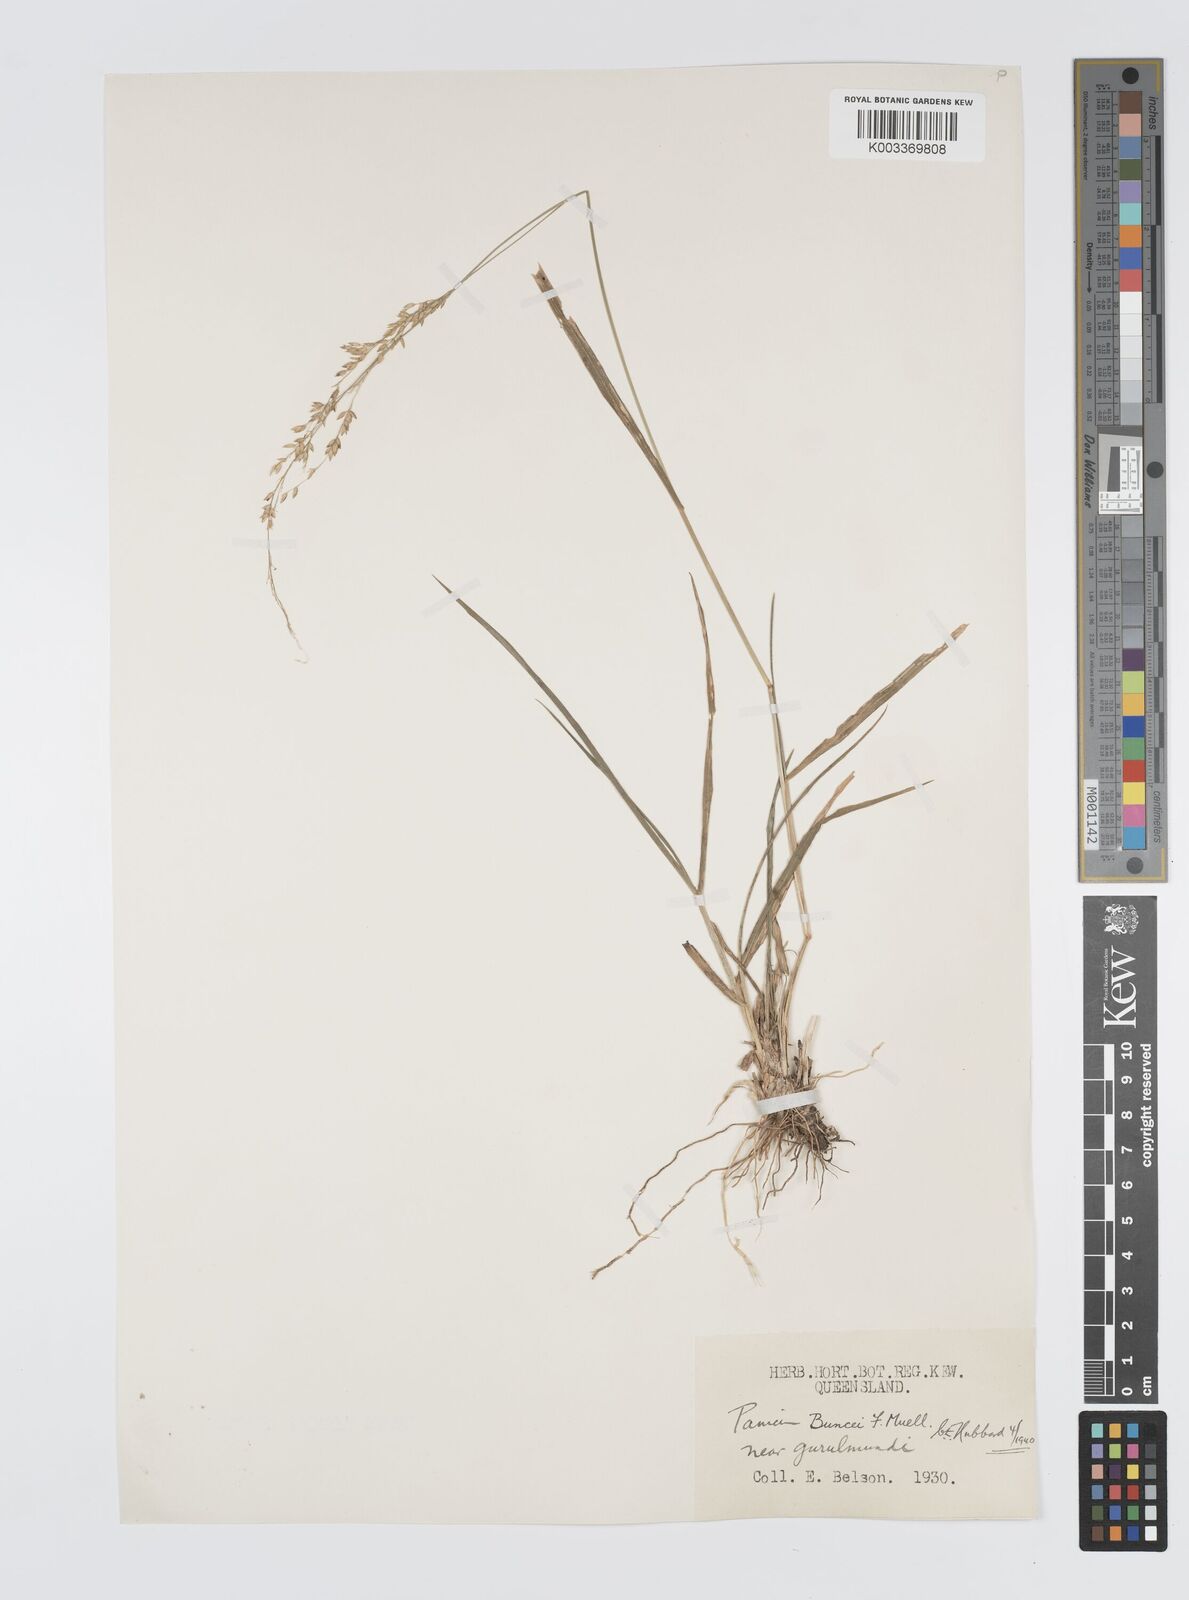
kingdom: Plantae
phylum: Tracheophyta
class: Liliopsida
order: Poales
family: Poaceae
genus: Panicum
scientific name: Panicum buncei
